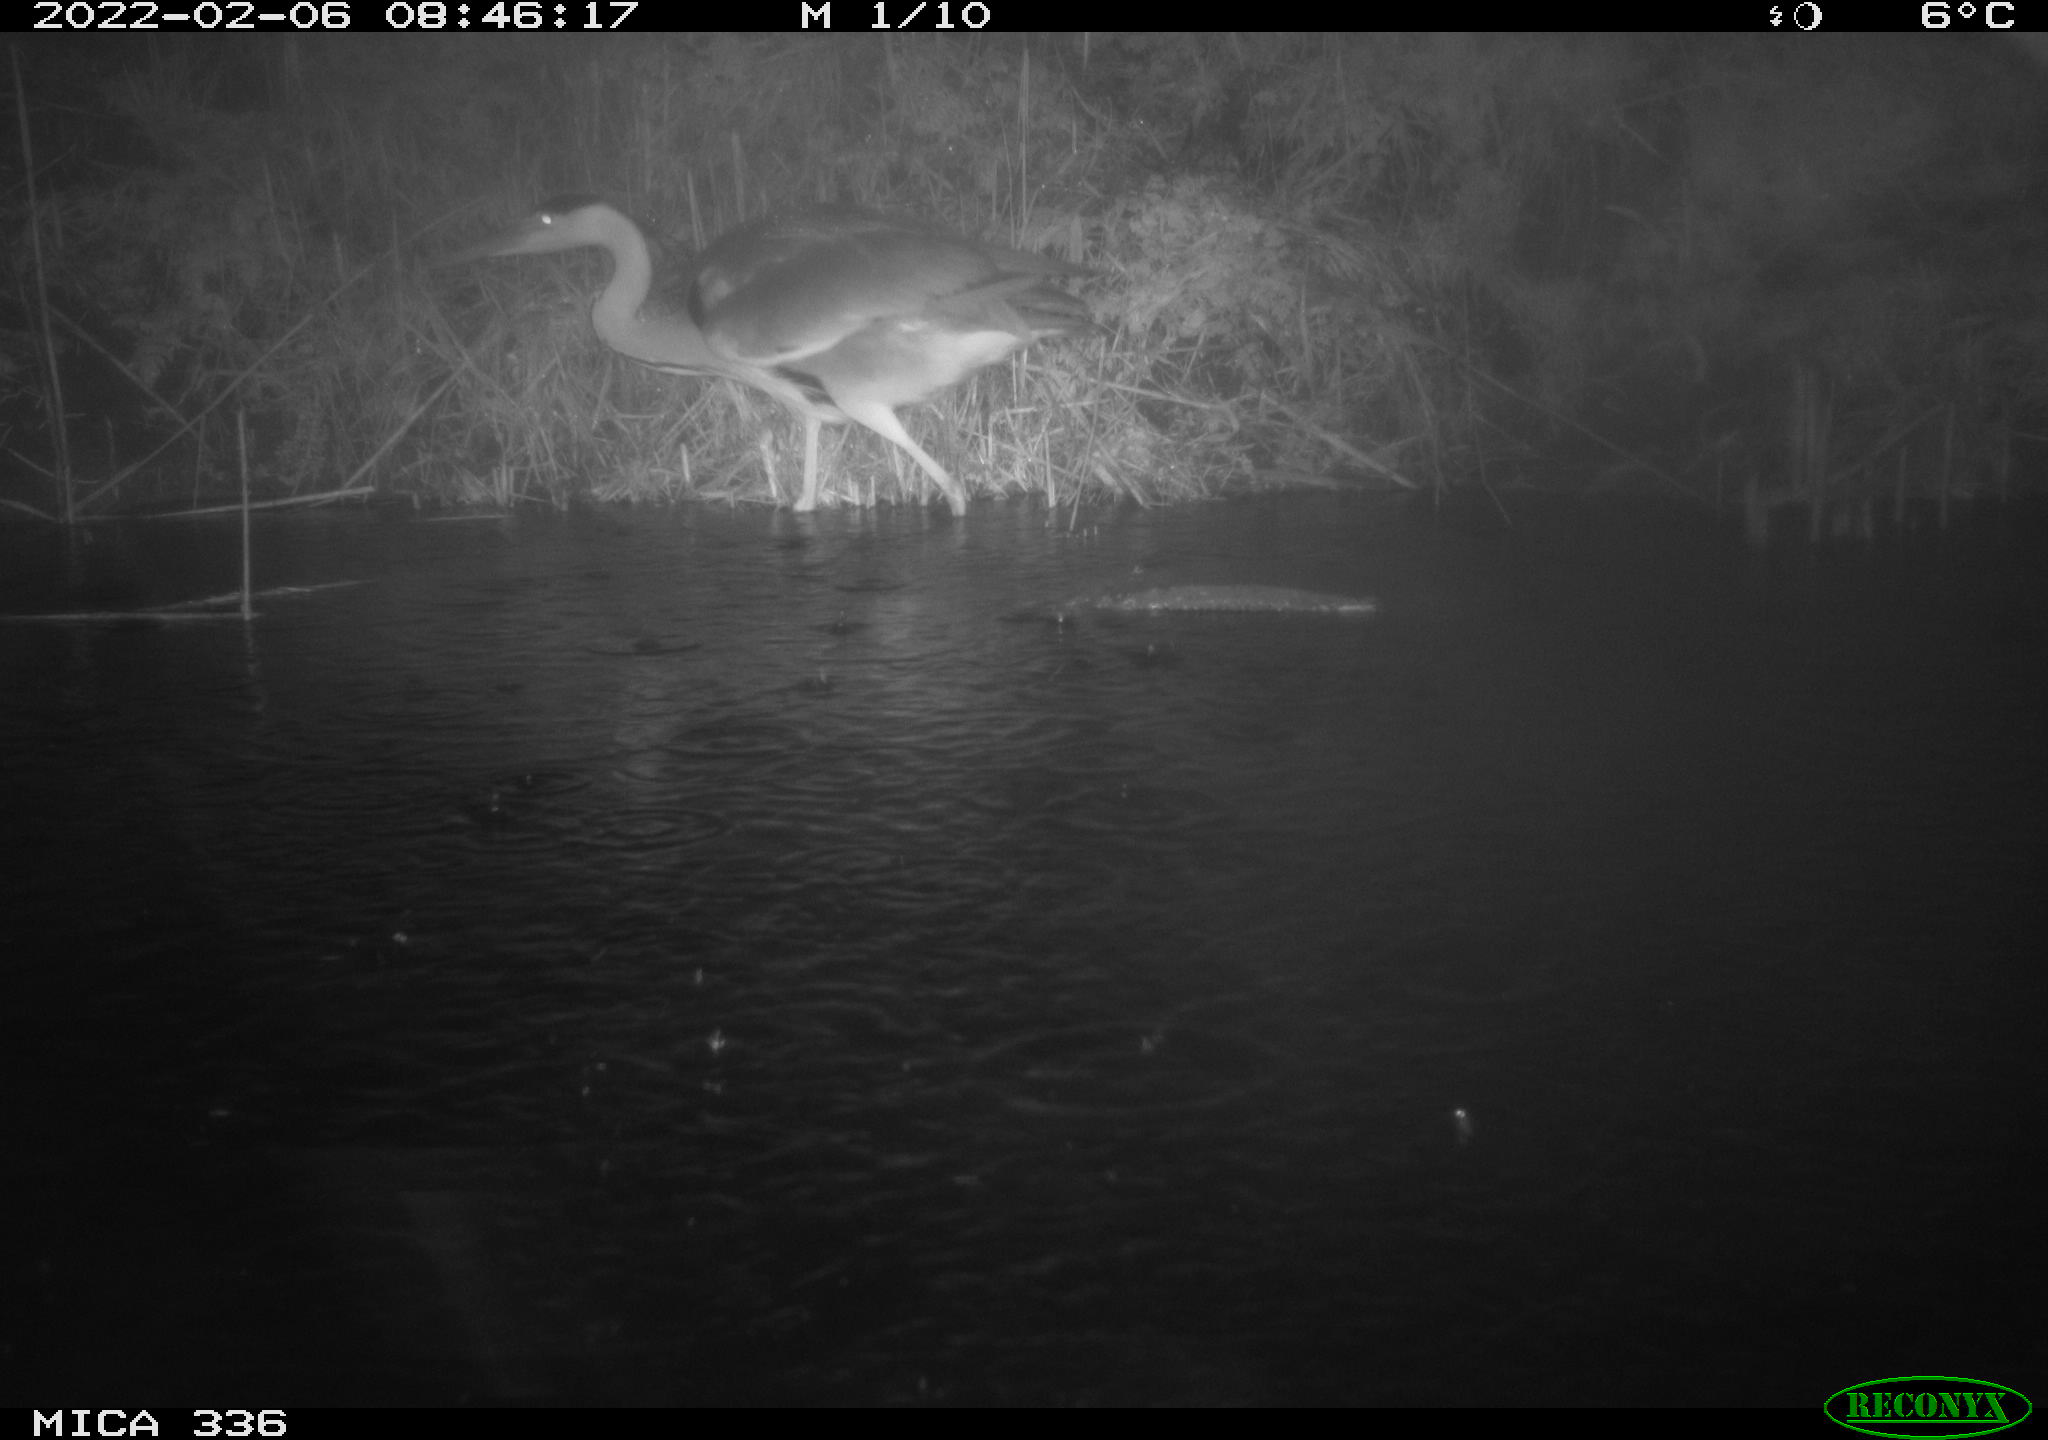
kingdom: Animalia
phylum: Chordata
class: Aves
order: Pelecaniformes
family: Ardeidae
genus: Ardea
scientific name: Ardea cinerea
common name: Grey heron
